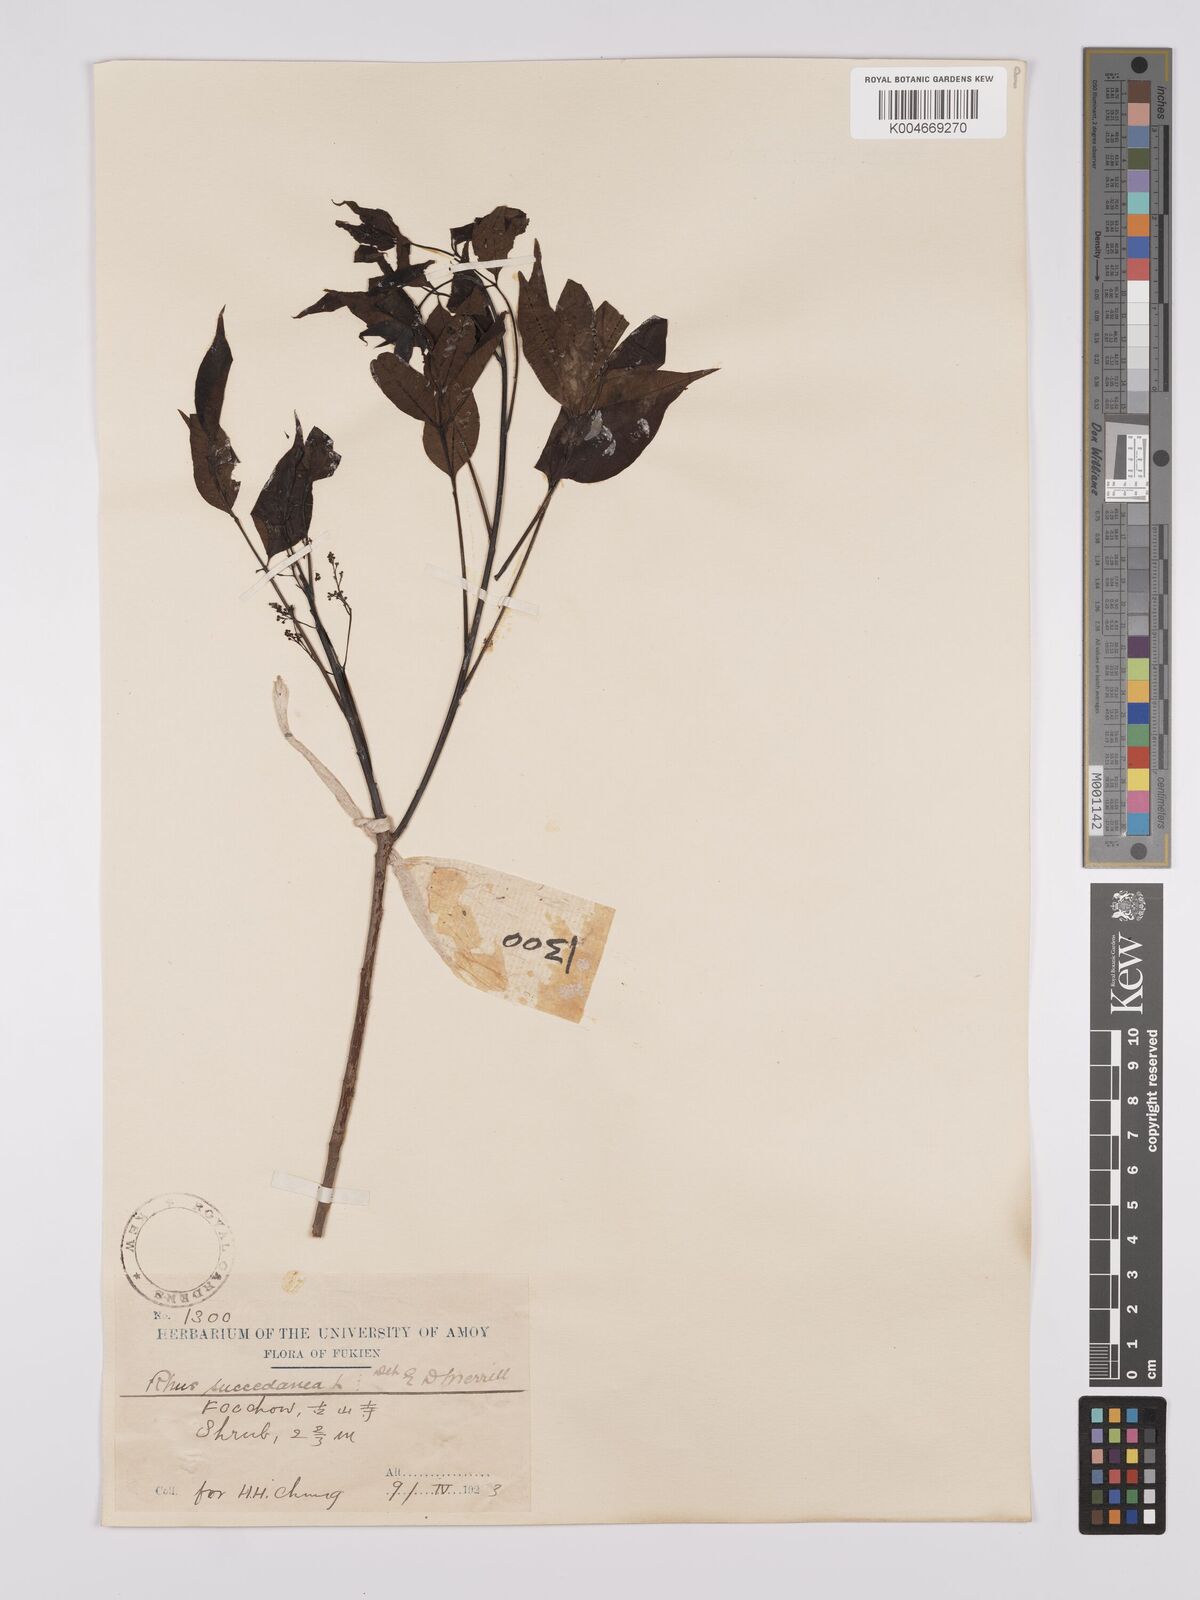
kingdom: Plantae
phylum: Tracheophyta
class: Magnoliopsida
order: Sapindales
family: Anacardiaceae
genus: Toxicodendron
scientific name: Toxicodendron succedaneum
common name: Wax tree
